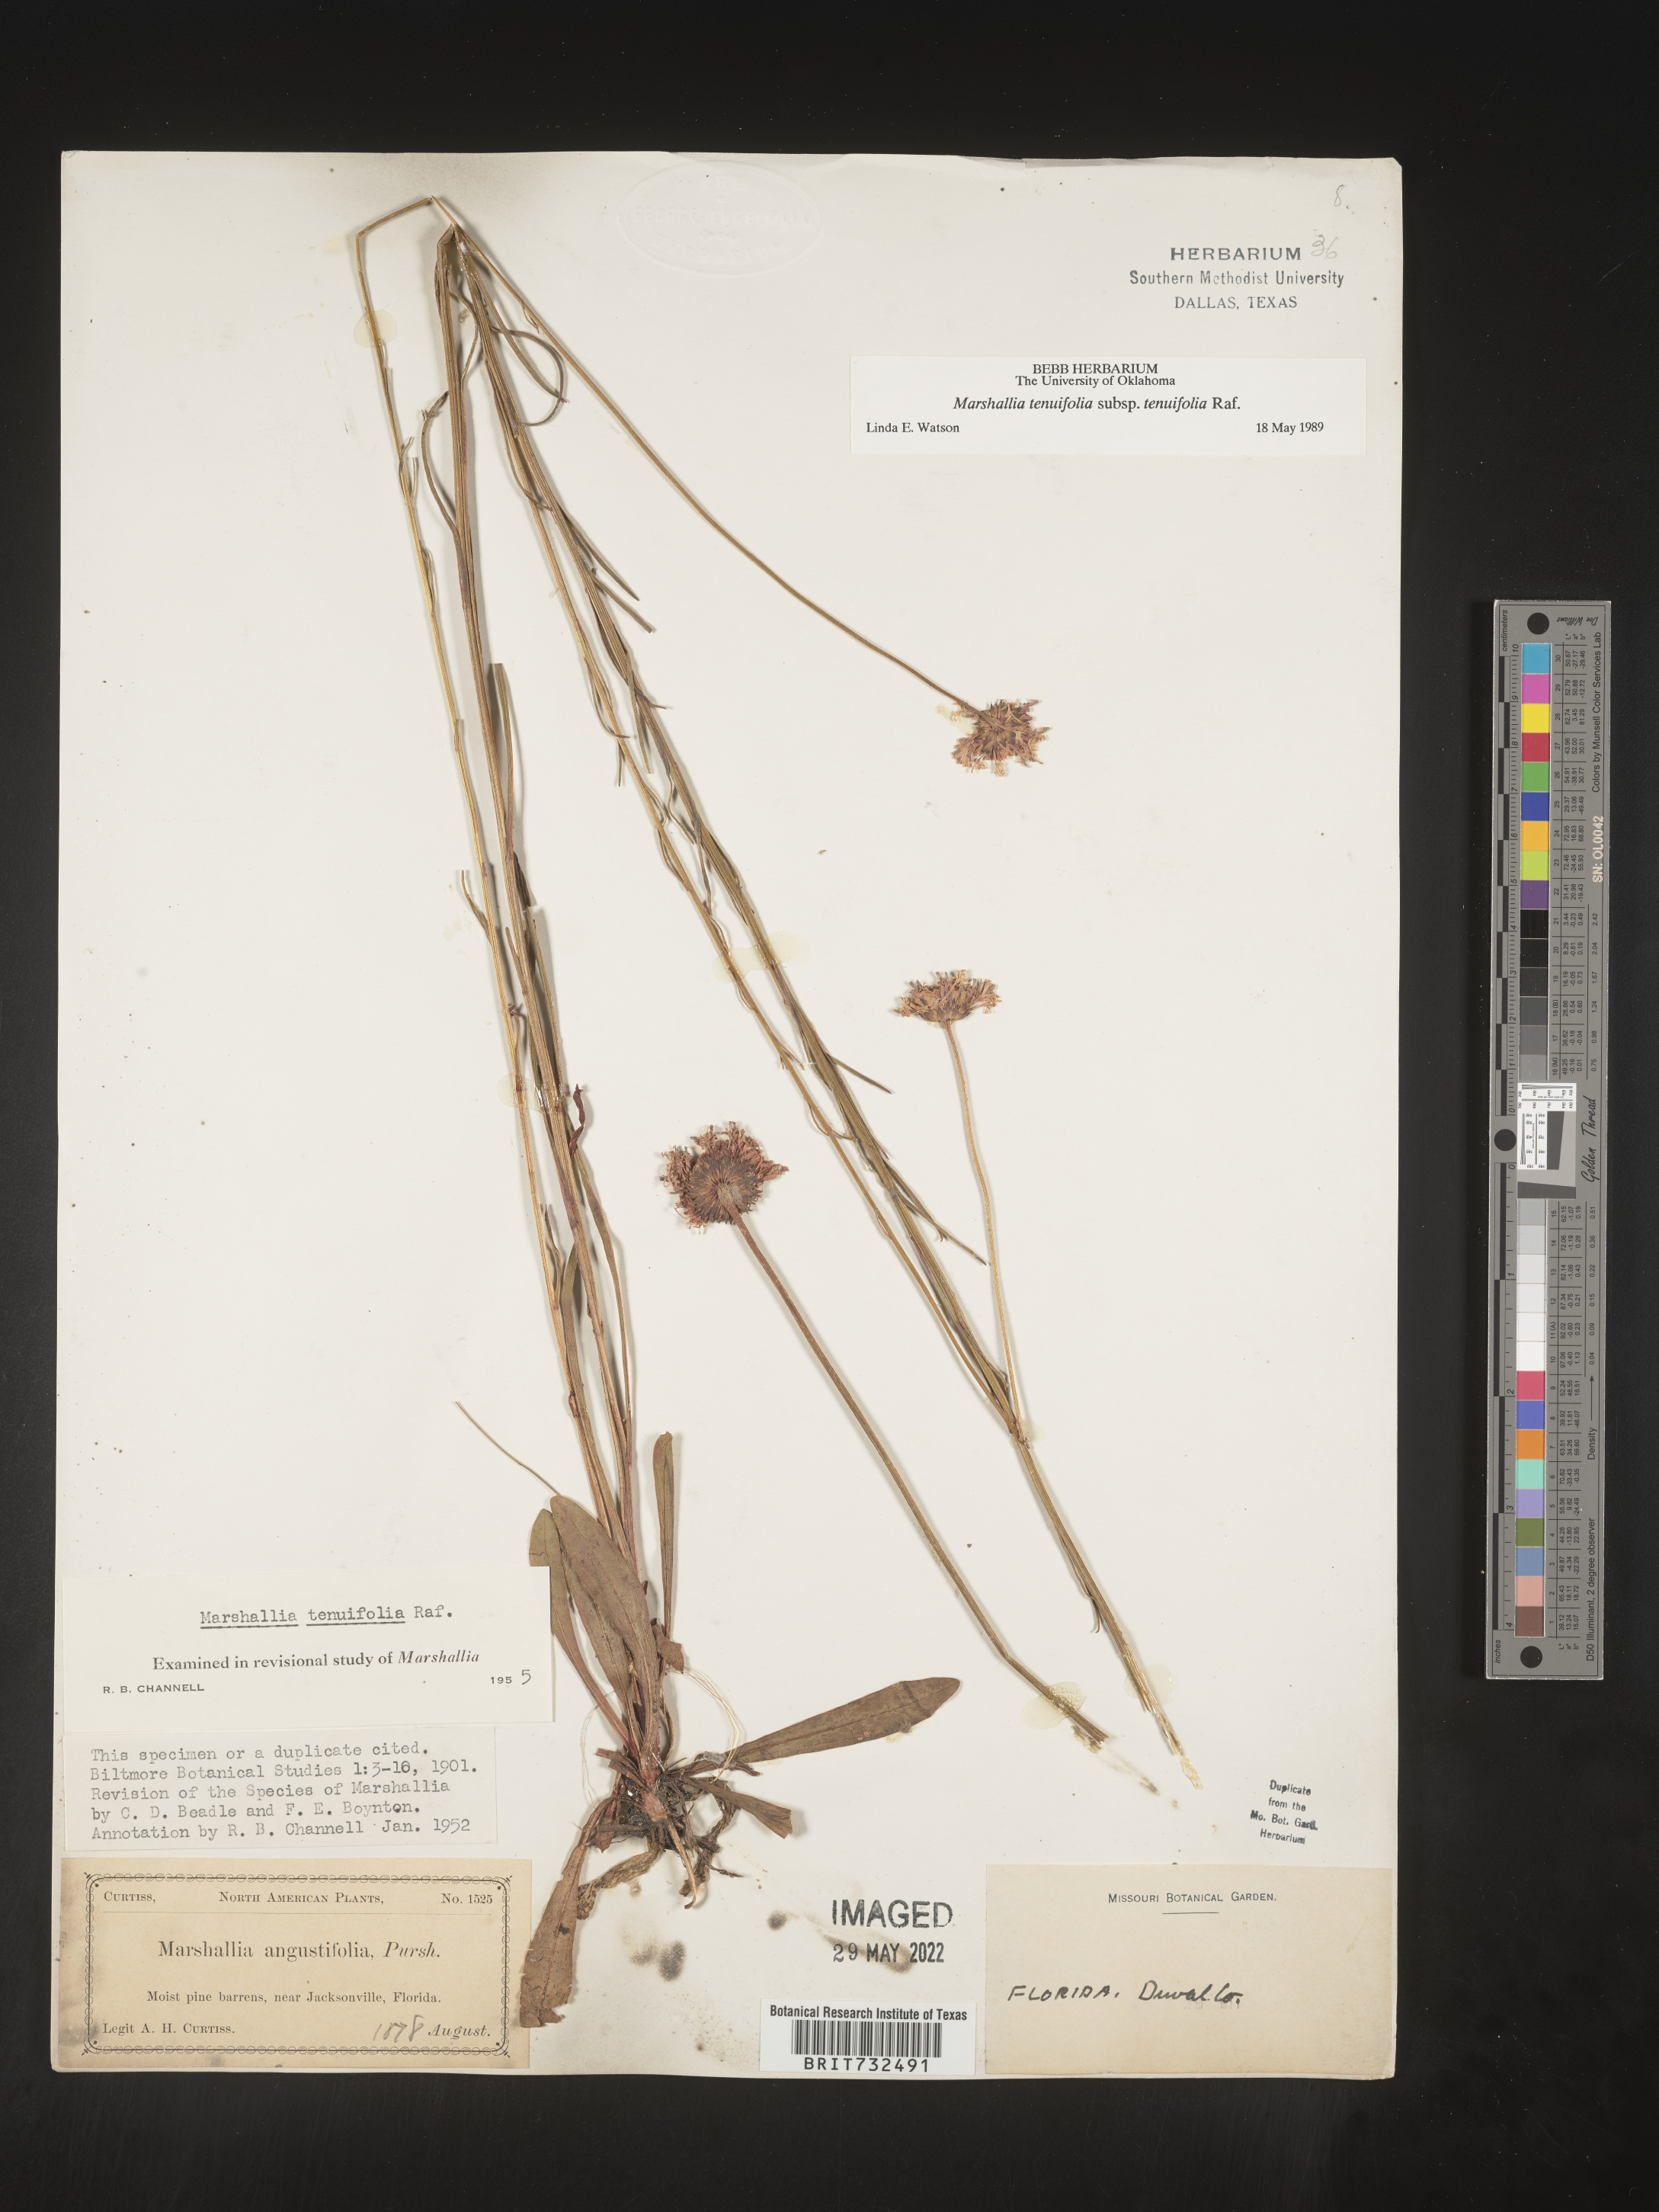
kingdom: Plantae
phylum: Tracheophyta
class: Magnoliopsida
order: Asterales
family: Asteraceae
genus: Vernonia
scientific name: Vernonia angustifolia
